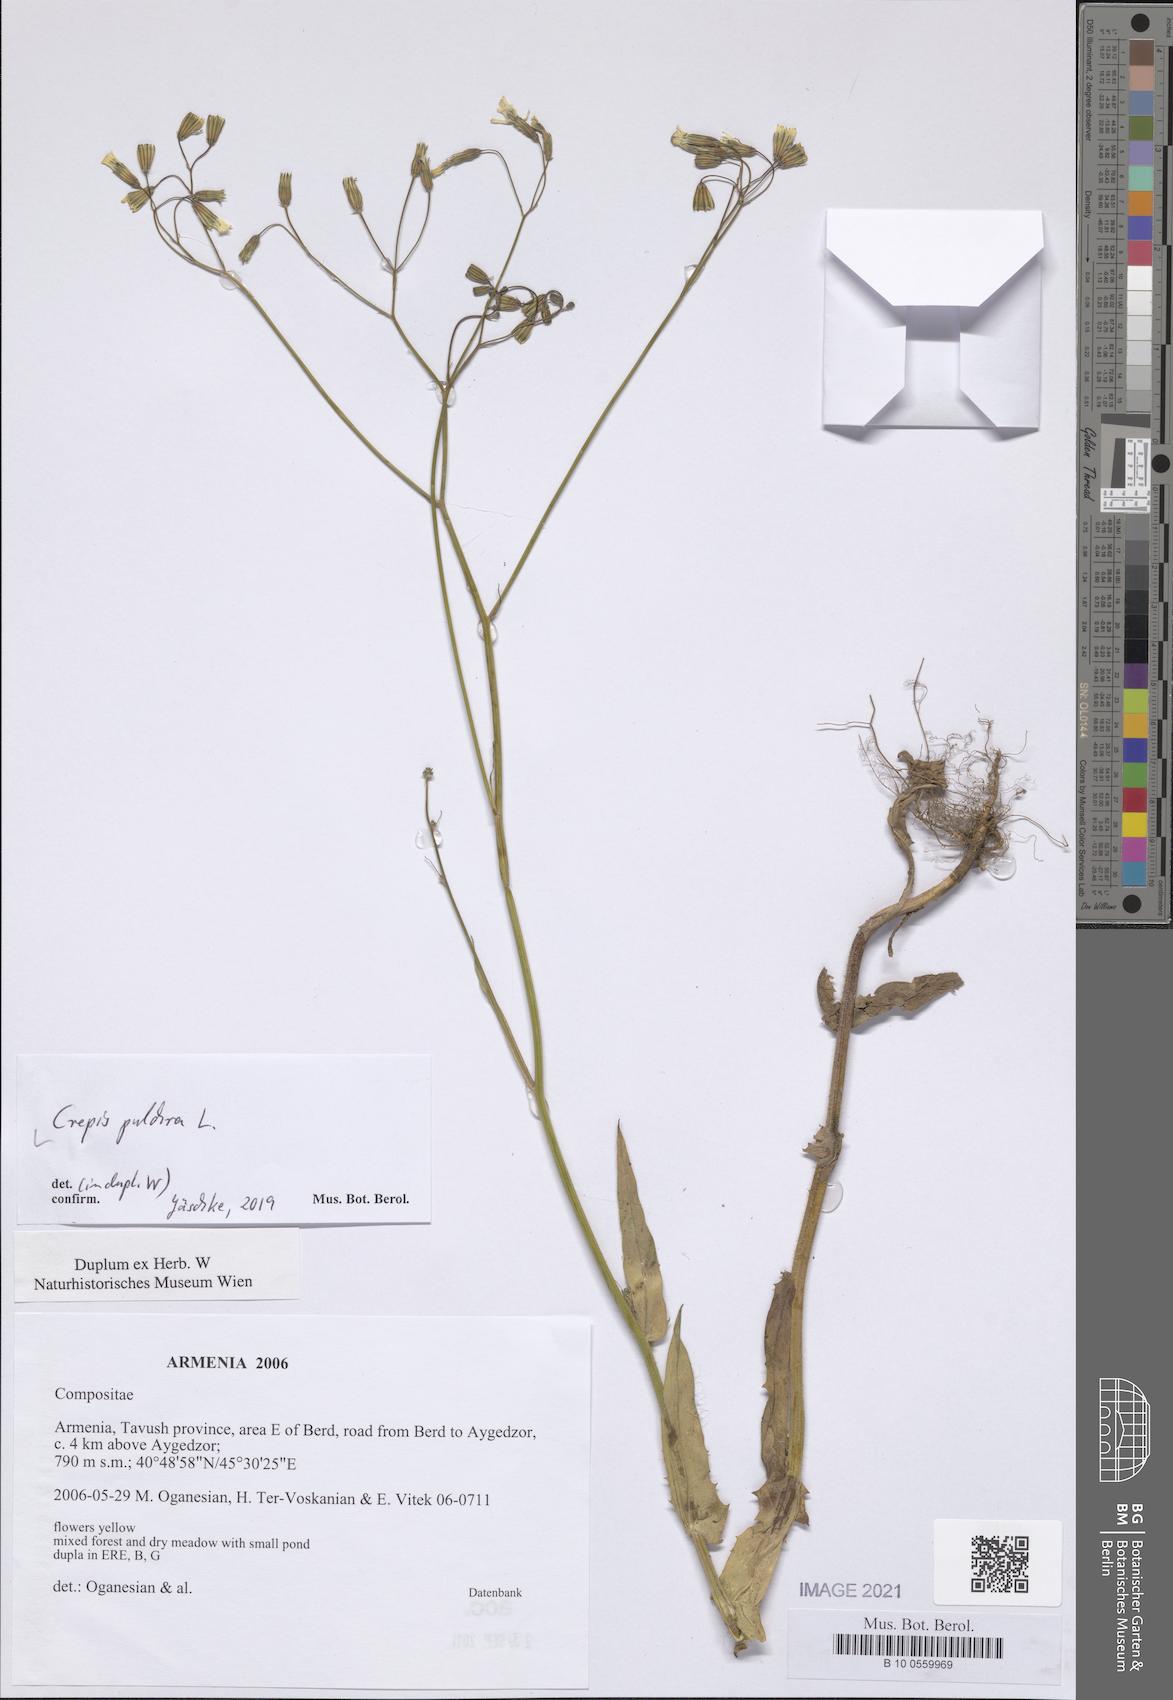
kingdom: Plantae
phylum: Tracheophyta
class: Magnoliopsida
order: Asterales
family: Asteraceae
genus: Crepis
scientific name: Crepis pulchra
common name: Hawk's-beard
